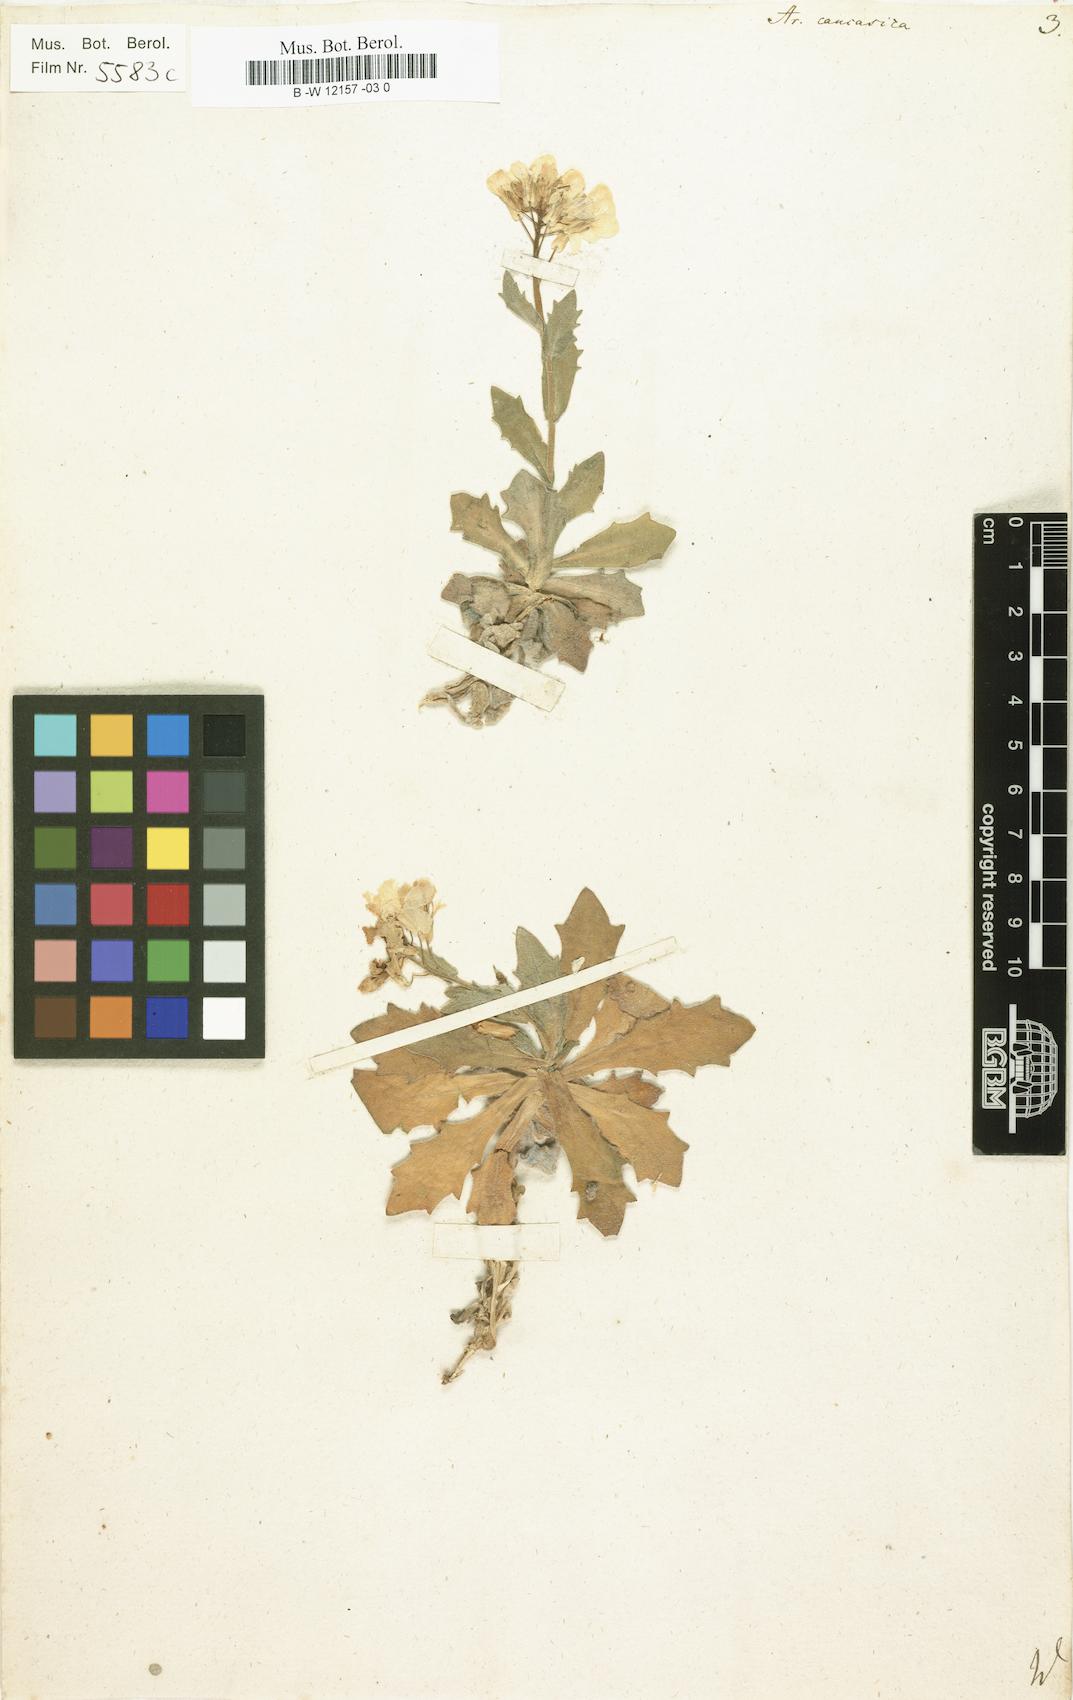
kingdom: Plantae
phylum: Tracheophyta
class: Magnoliopsida
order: Brassicales
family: Brassicaceae
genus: Arabis
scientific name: Arabis caucasica
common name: Gray rockcress
